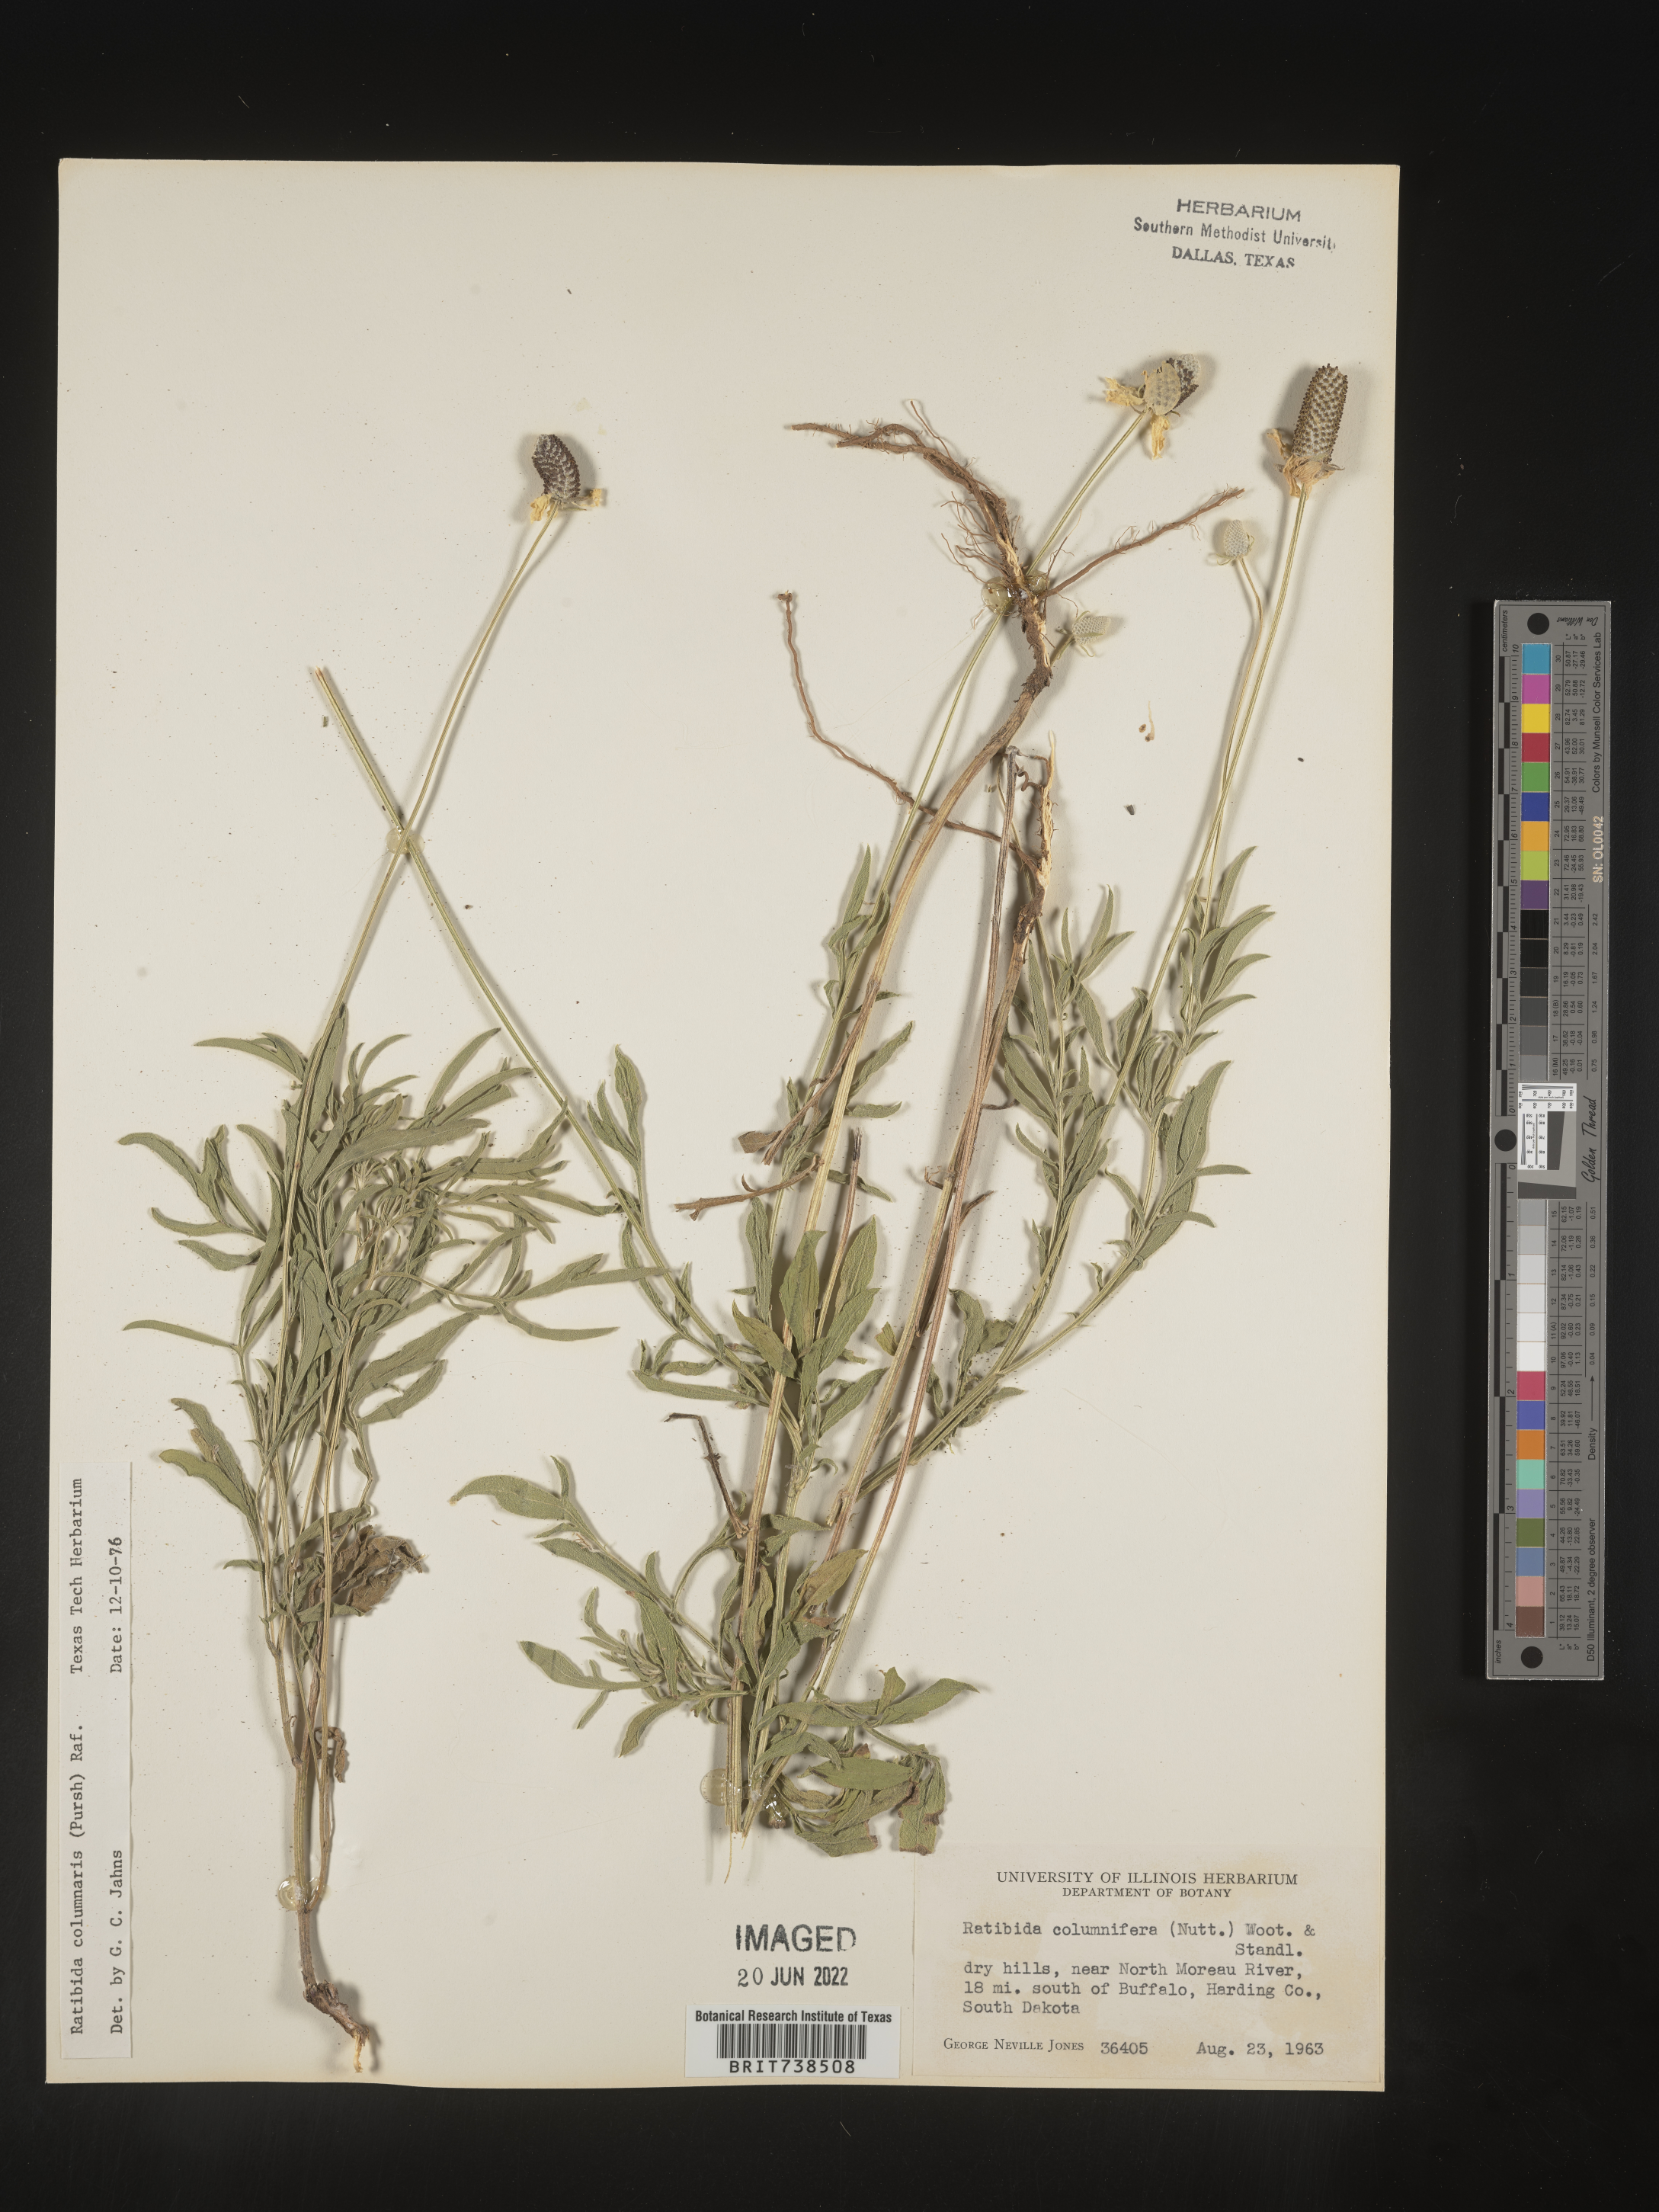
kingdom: Plantae
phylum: Tracheophyta
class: Magnoliopsida
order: Asterales
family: Asteraceae
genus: Ratibida
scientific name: Ratibida columnifera
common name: Prairie coneflower
